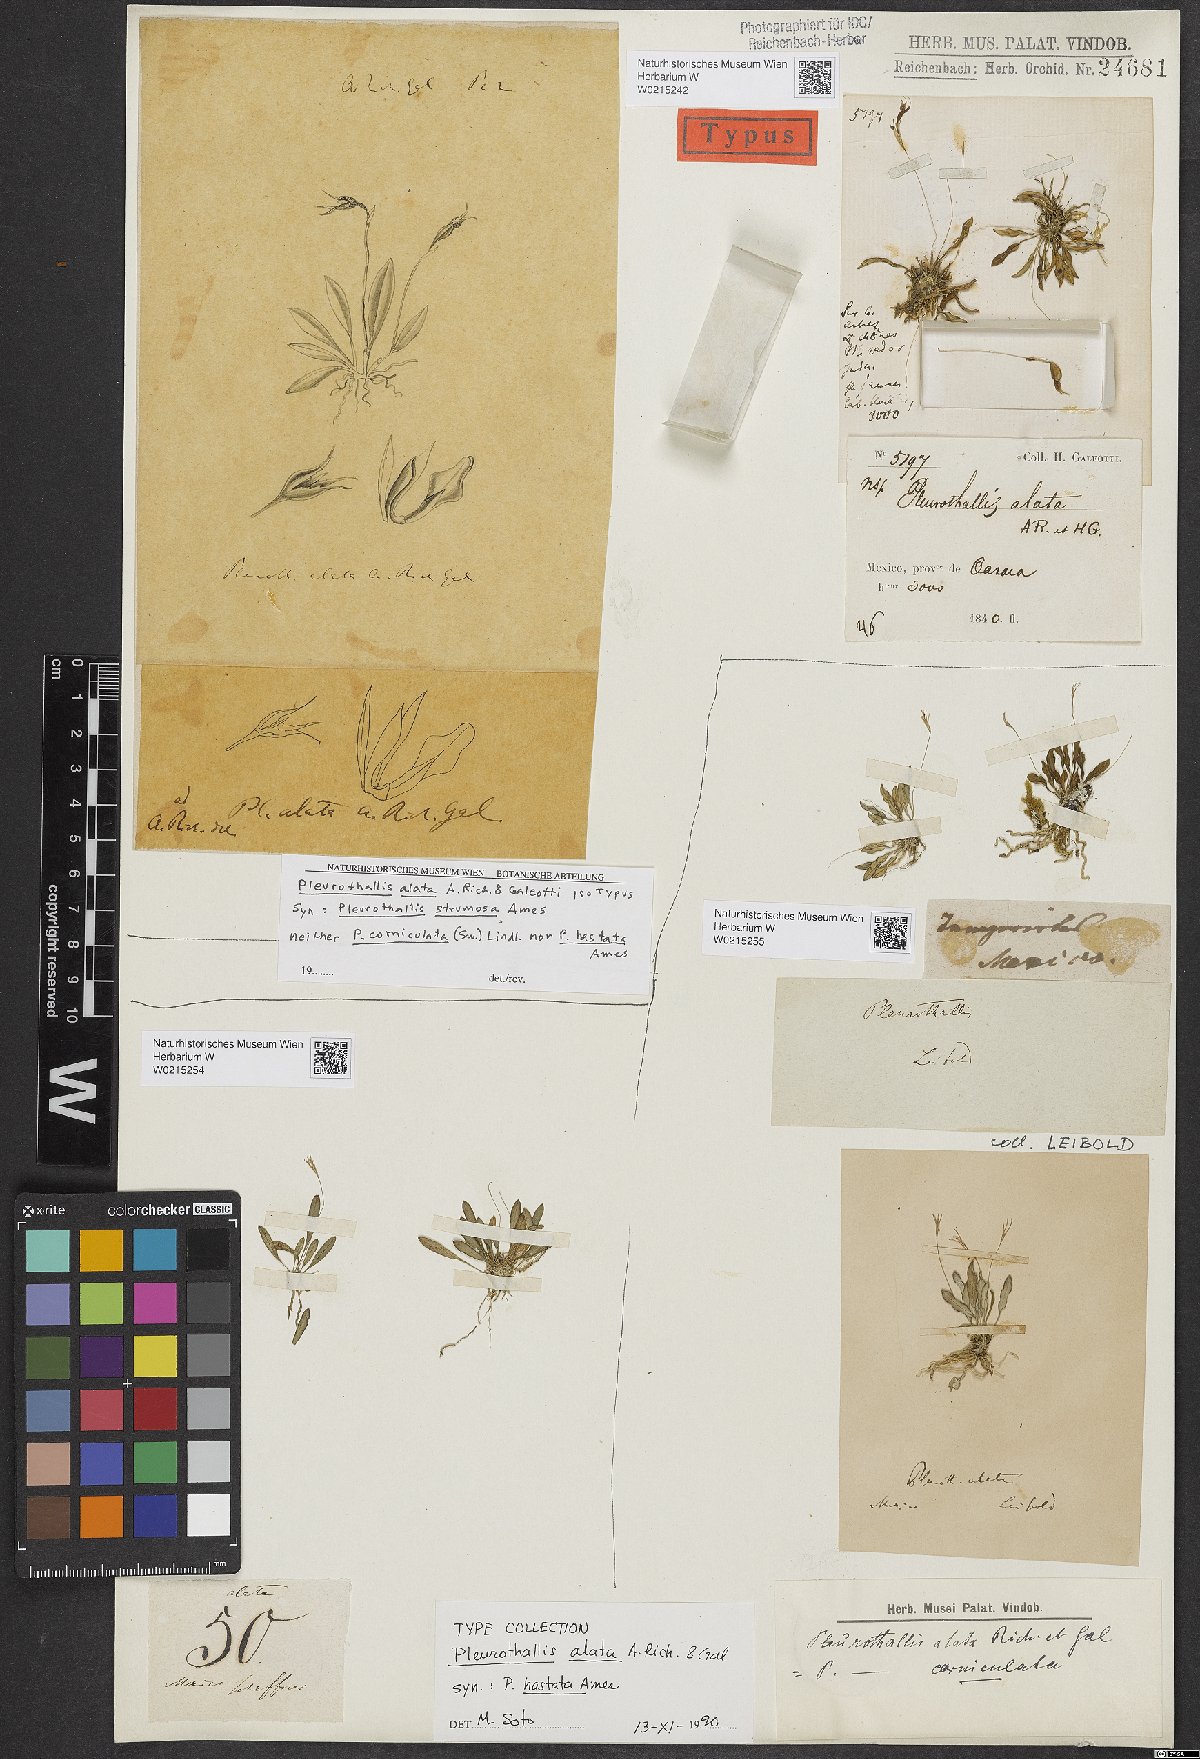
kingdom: Plantae
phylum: Tracheophyta
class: Liliopsida
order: Asparagales
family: Orchidaceae
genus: Muscarella
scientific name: Muscarella marginata
